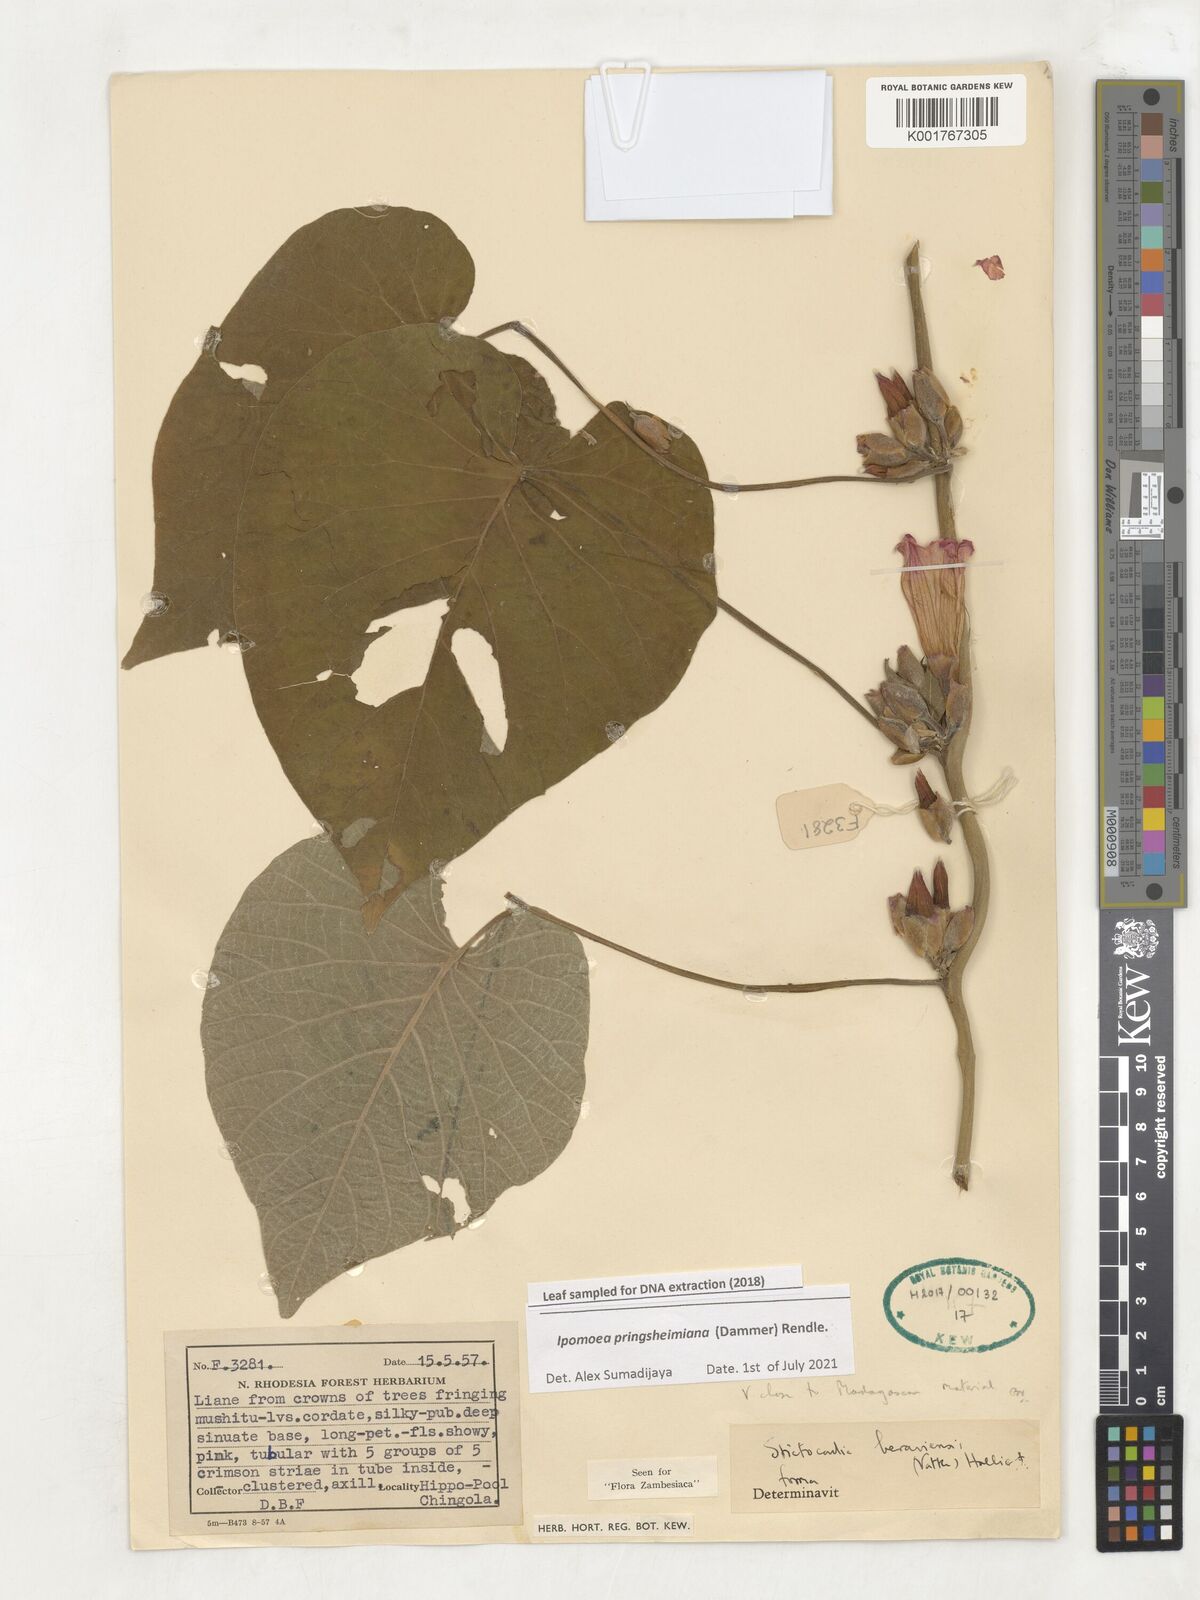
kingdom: Plantae
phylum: Tracheophyta
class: Magnoliopsida
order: Solanales
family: Convolvulaceae
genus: Stictocardia
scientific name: Stictocardia beraviensis
